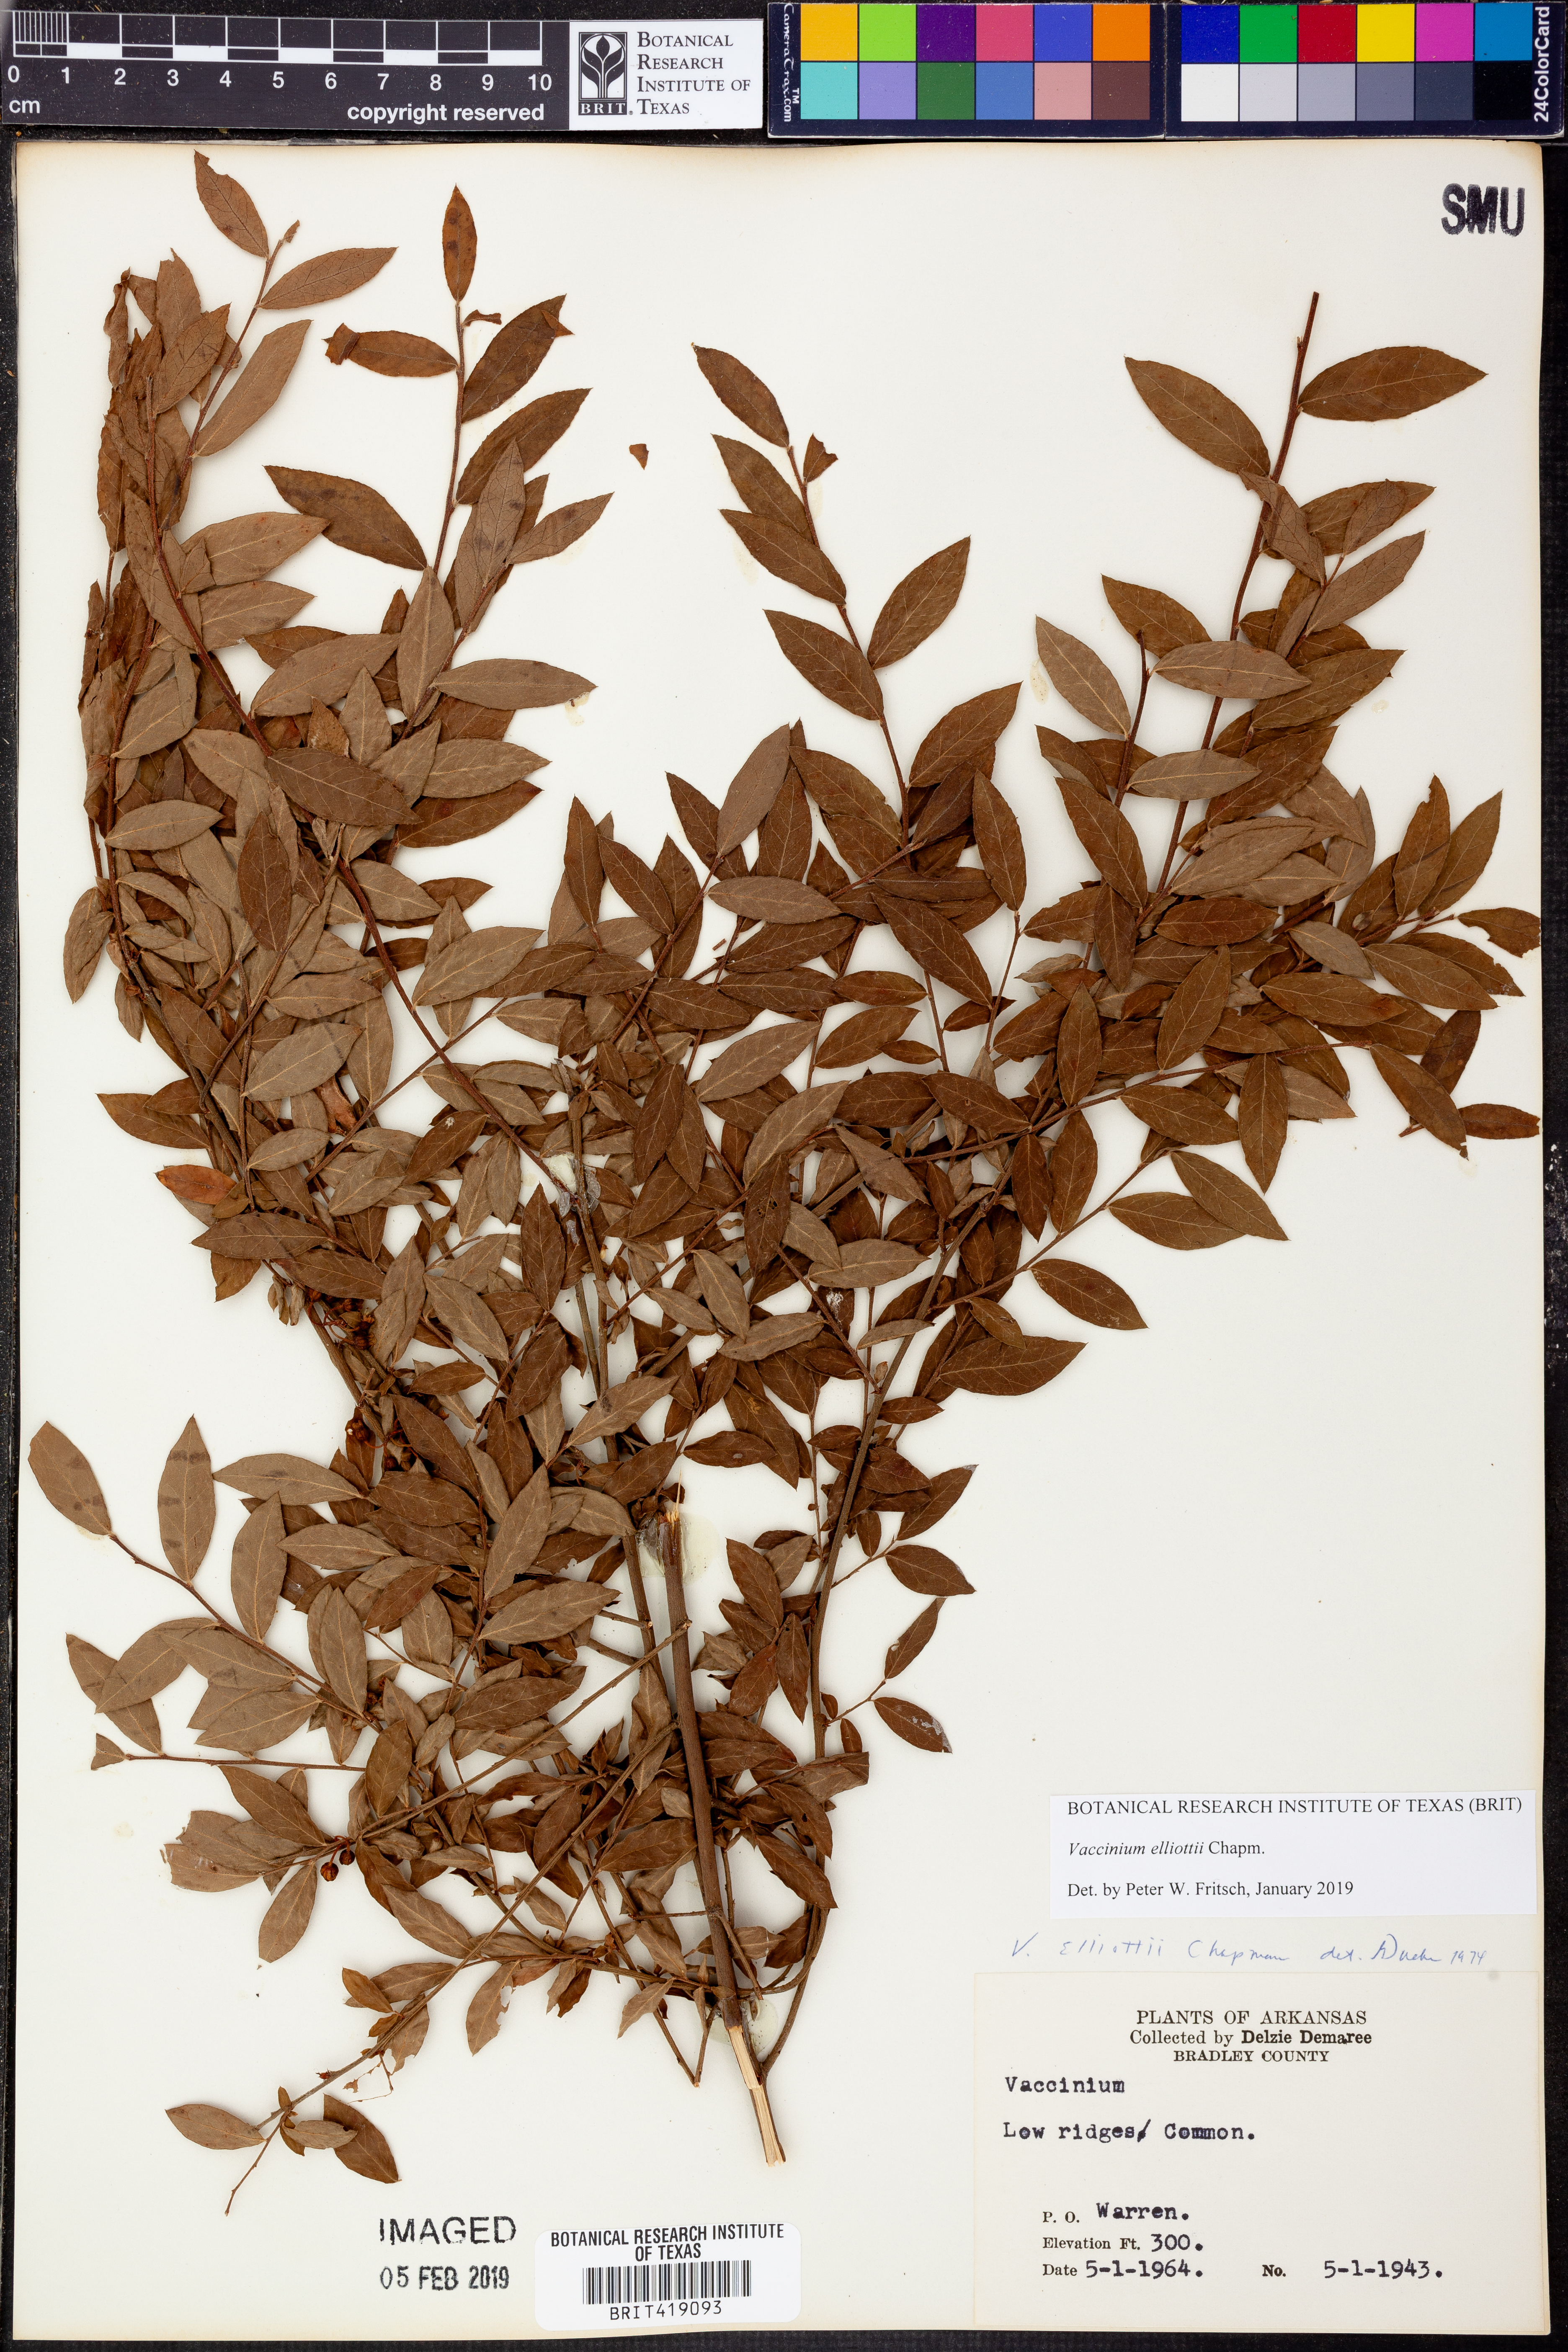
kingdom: Plantae
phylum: Tracheophyta
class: Magnoliopsida
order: Ericales
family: Ericaceae
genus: Vaccinium
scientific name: Vaccinium corymbosum
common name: Blueberry
